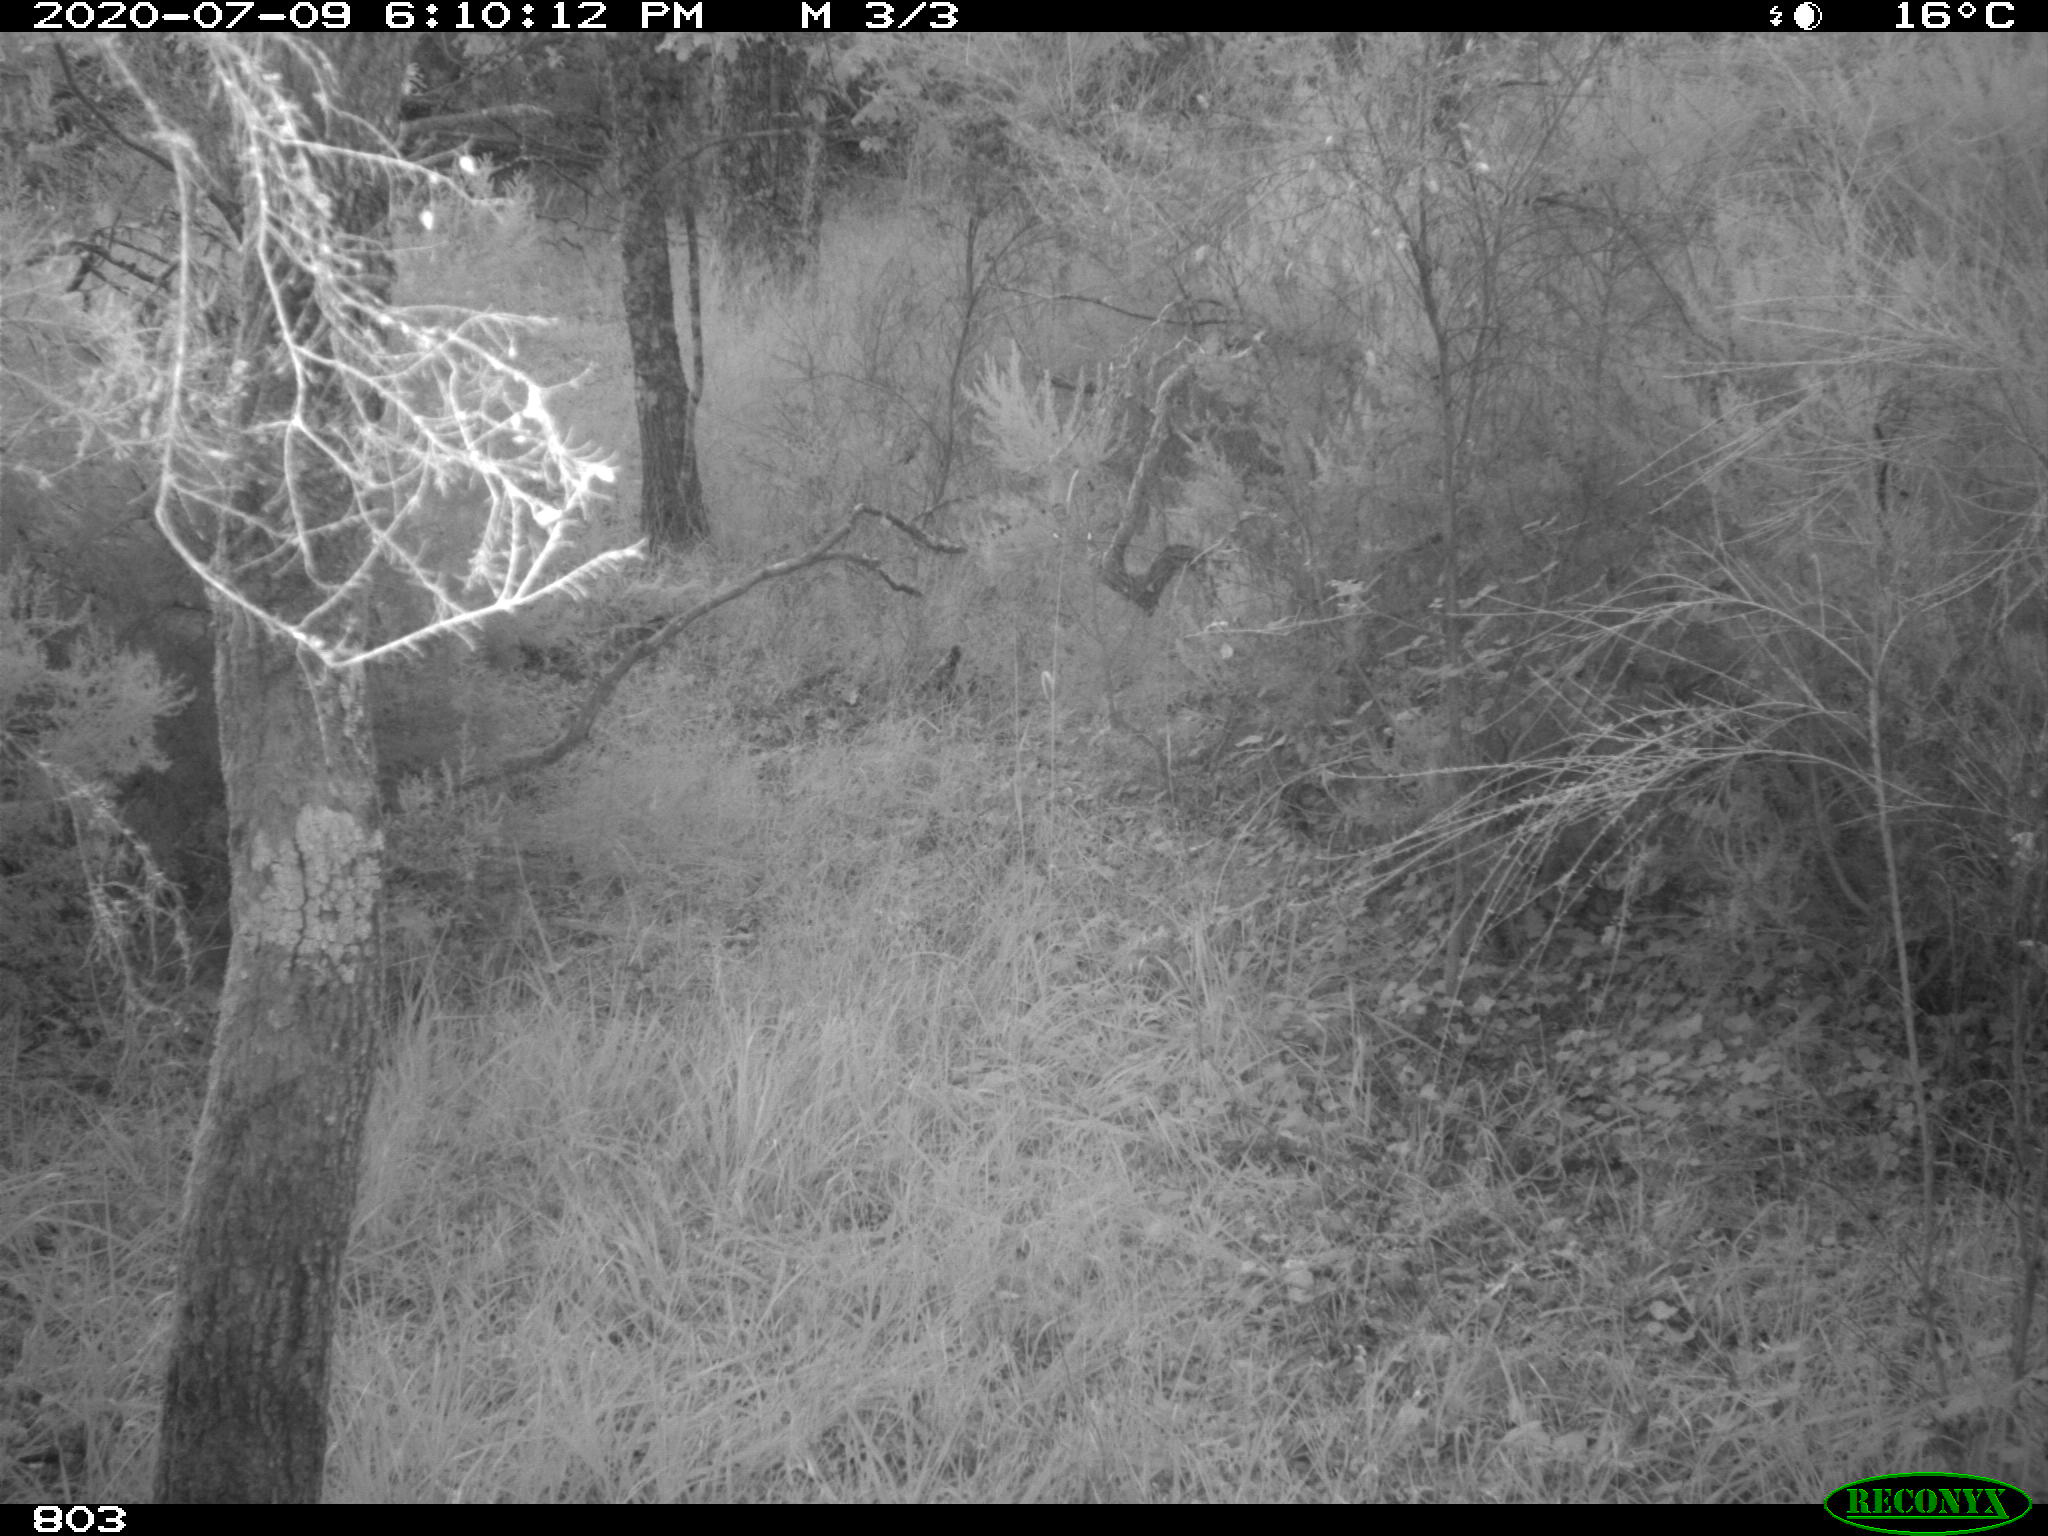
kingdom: Animalia
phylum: Chordata
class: Mammalia
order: Artiodactyla
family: Suidae
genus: Sus
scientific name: Sus scrofa
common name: Wild boar
